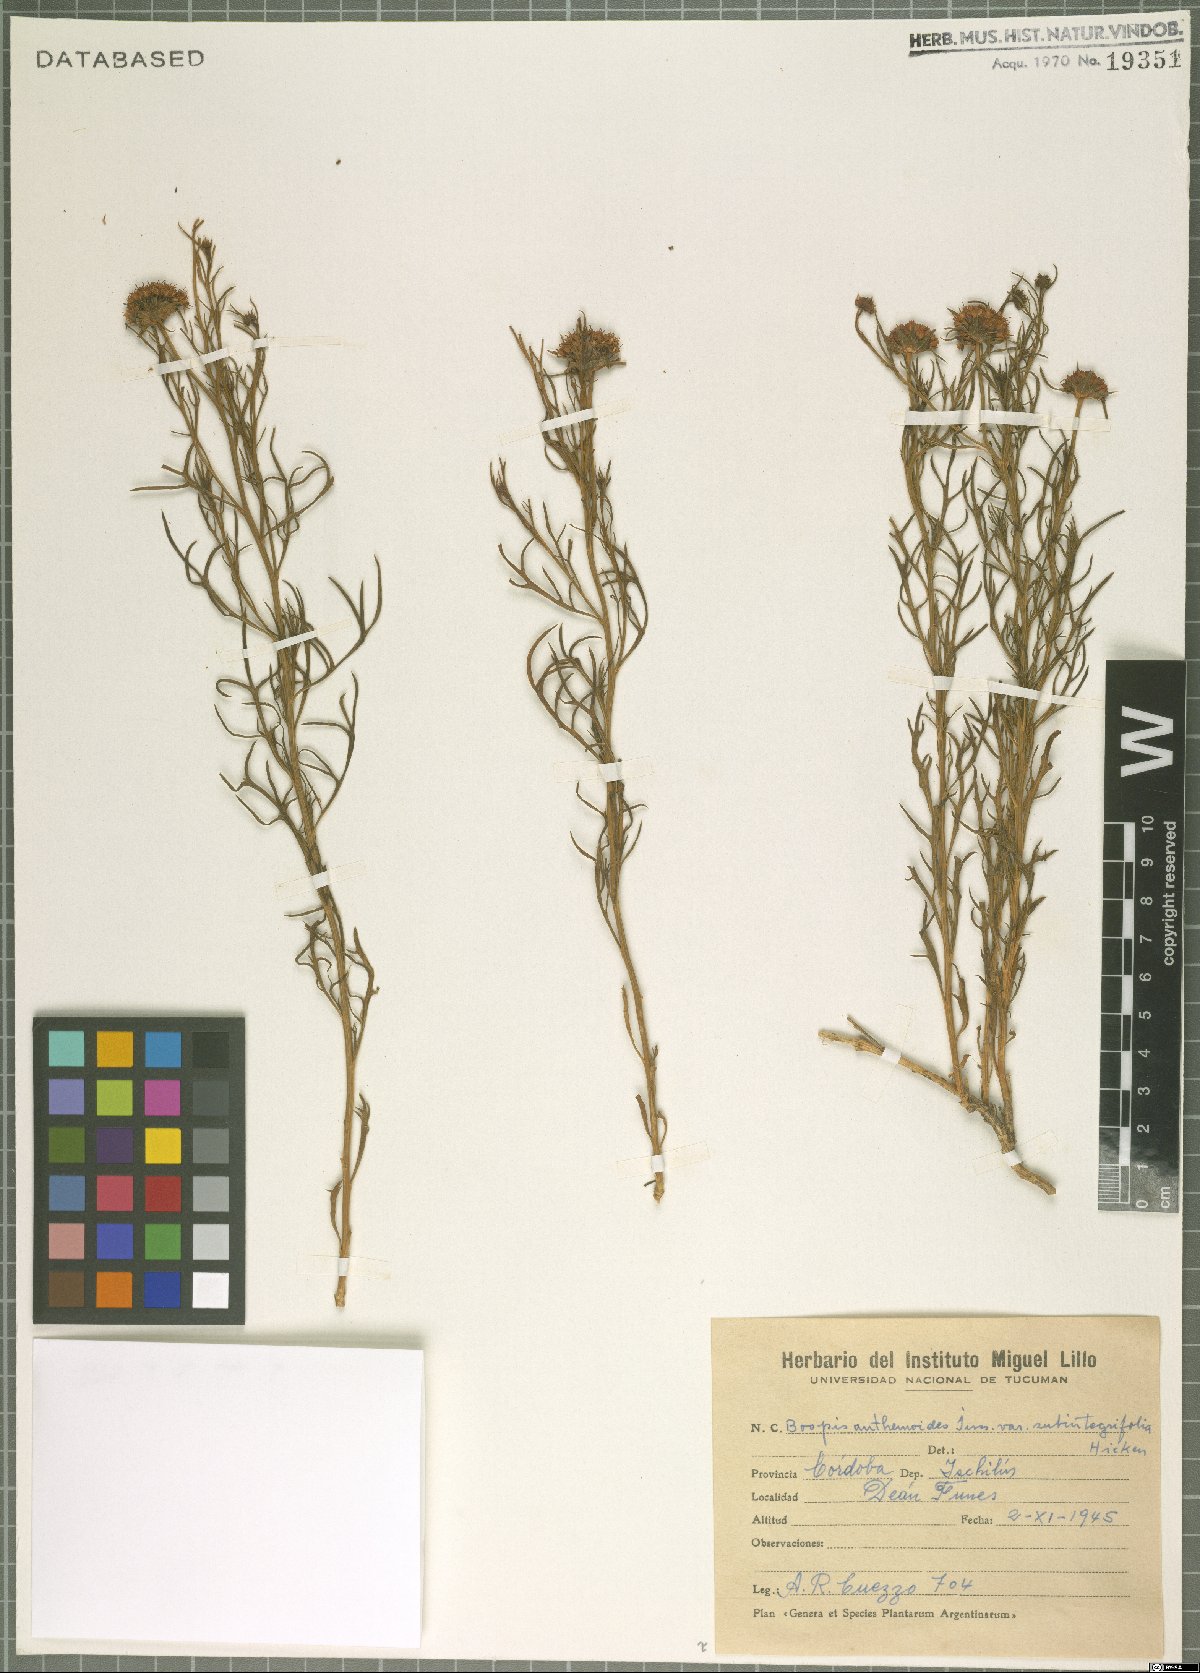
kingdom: Plantae
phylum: Tracheophyta
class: Magnoliopsida
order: Asterales
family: Calyceraceae
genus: Boopis
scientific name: Boopis anthemoides
